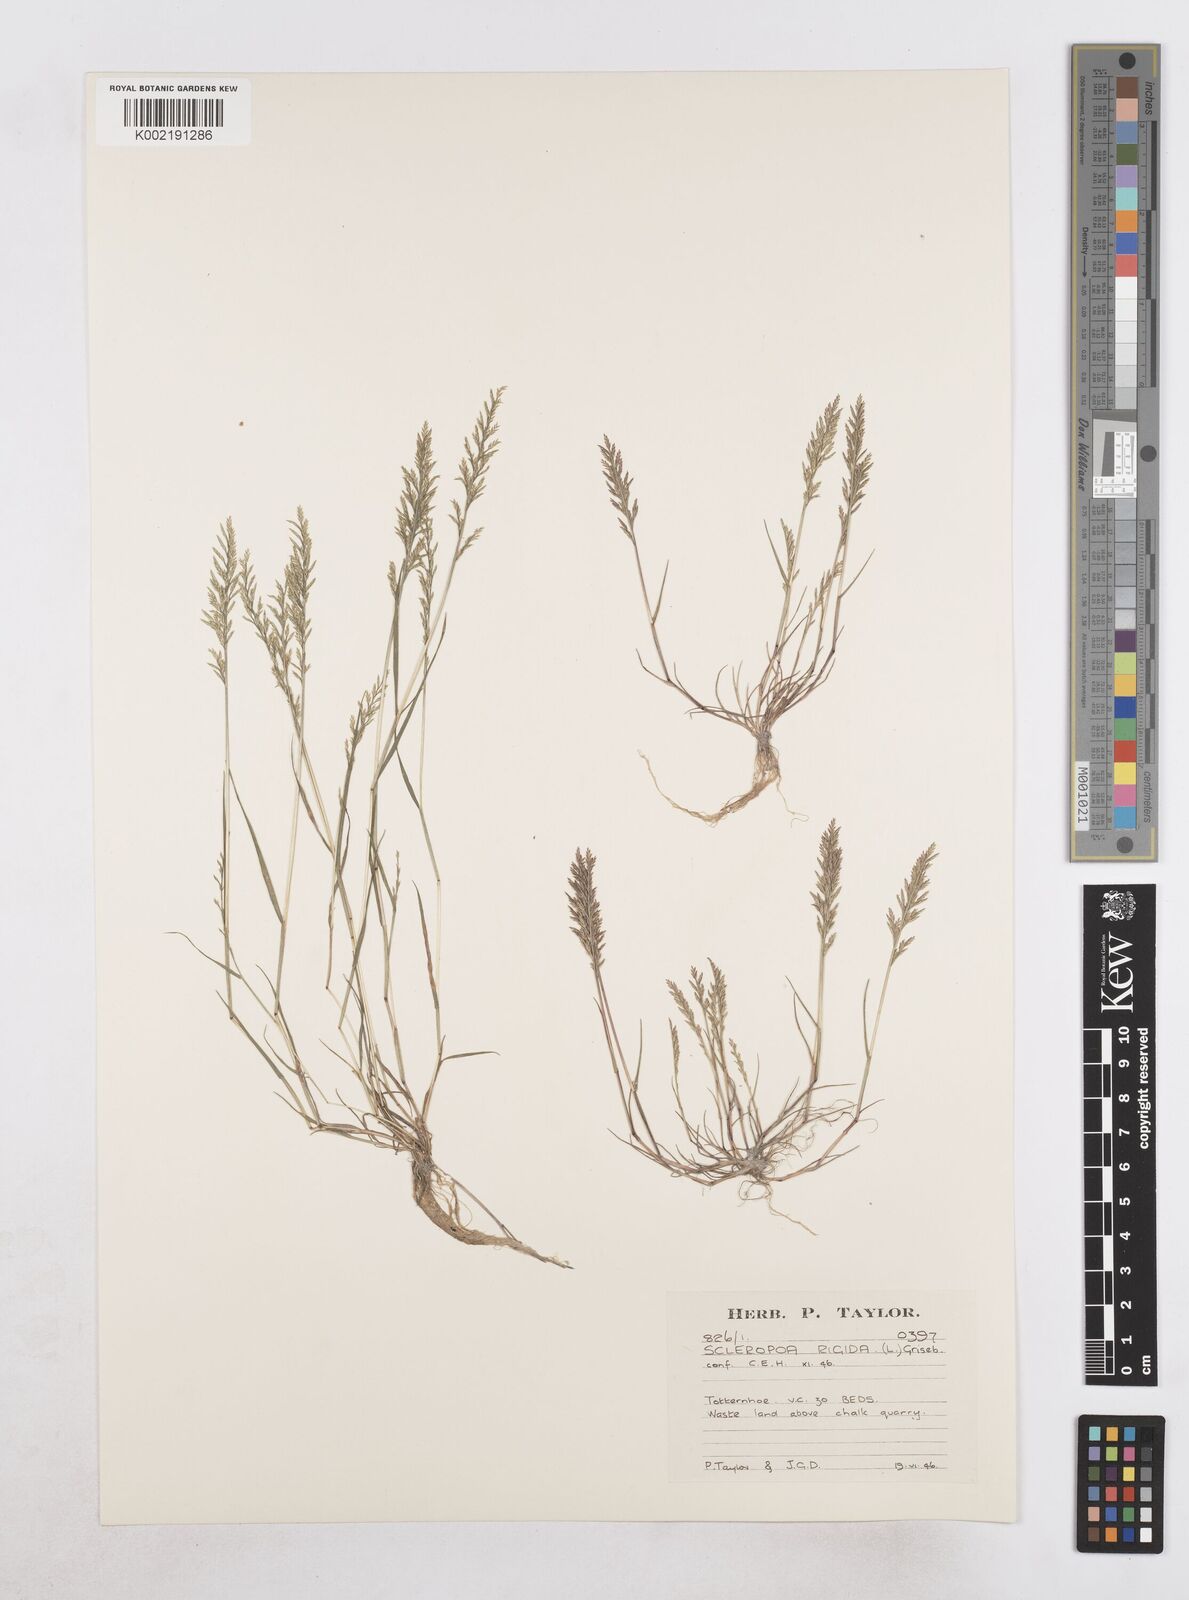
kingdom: Plantae
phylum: Tracheophyta
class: Liliopsida
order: Poales
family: Poaceae
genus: Catapodium
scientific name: Catapodium rigidum
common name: Fern-grass
